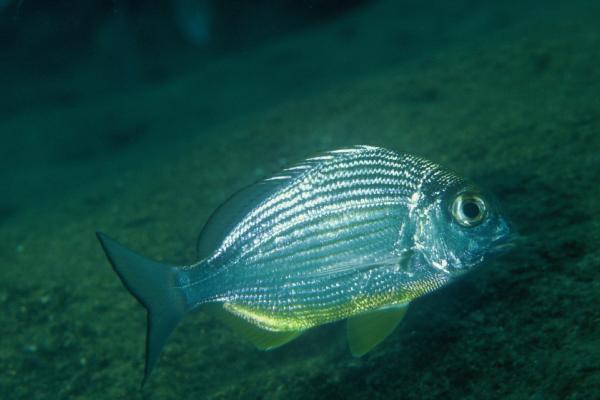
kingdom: Animalia
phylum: Chordata
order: Perciformes
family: Sparidae
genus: Rhabdosargus
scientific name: Rhabdosargus thorpei
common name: Bigeye stumpnose
